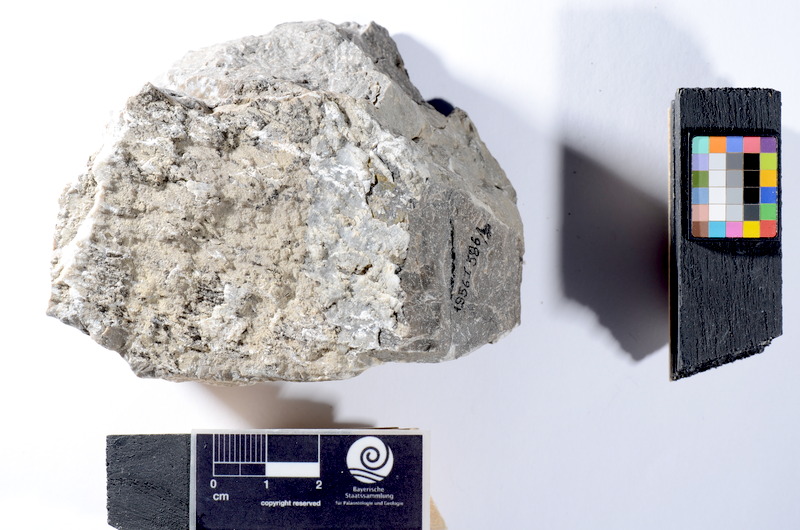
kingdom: Animalia
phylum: Chordata
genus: Plesiolepidotus
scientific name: Plesiolepidotus
